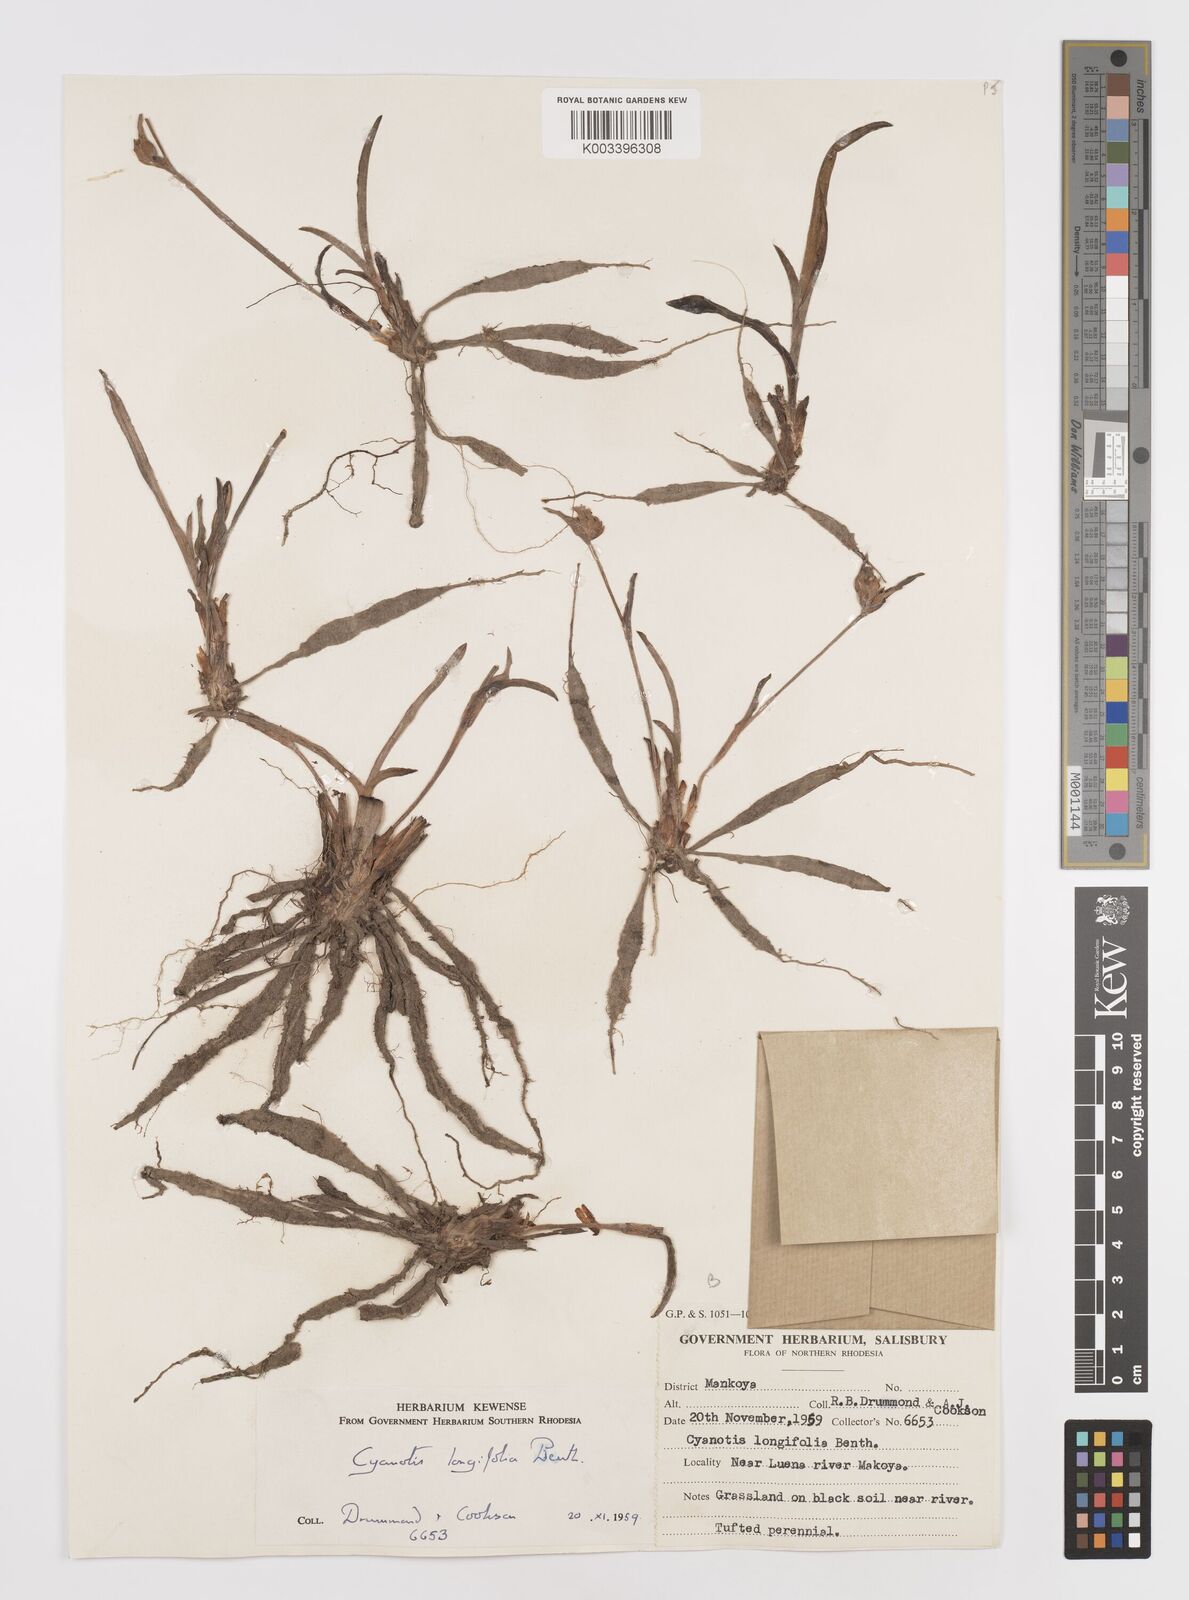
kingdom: Plantae
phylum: Tracheophyta
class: Liliopsida
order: Commelinales
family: Commelinaceae
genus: Cyanotis
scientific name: Cyanotis longifolia
